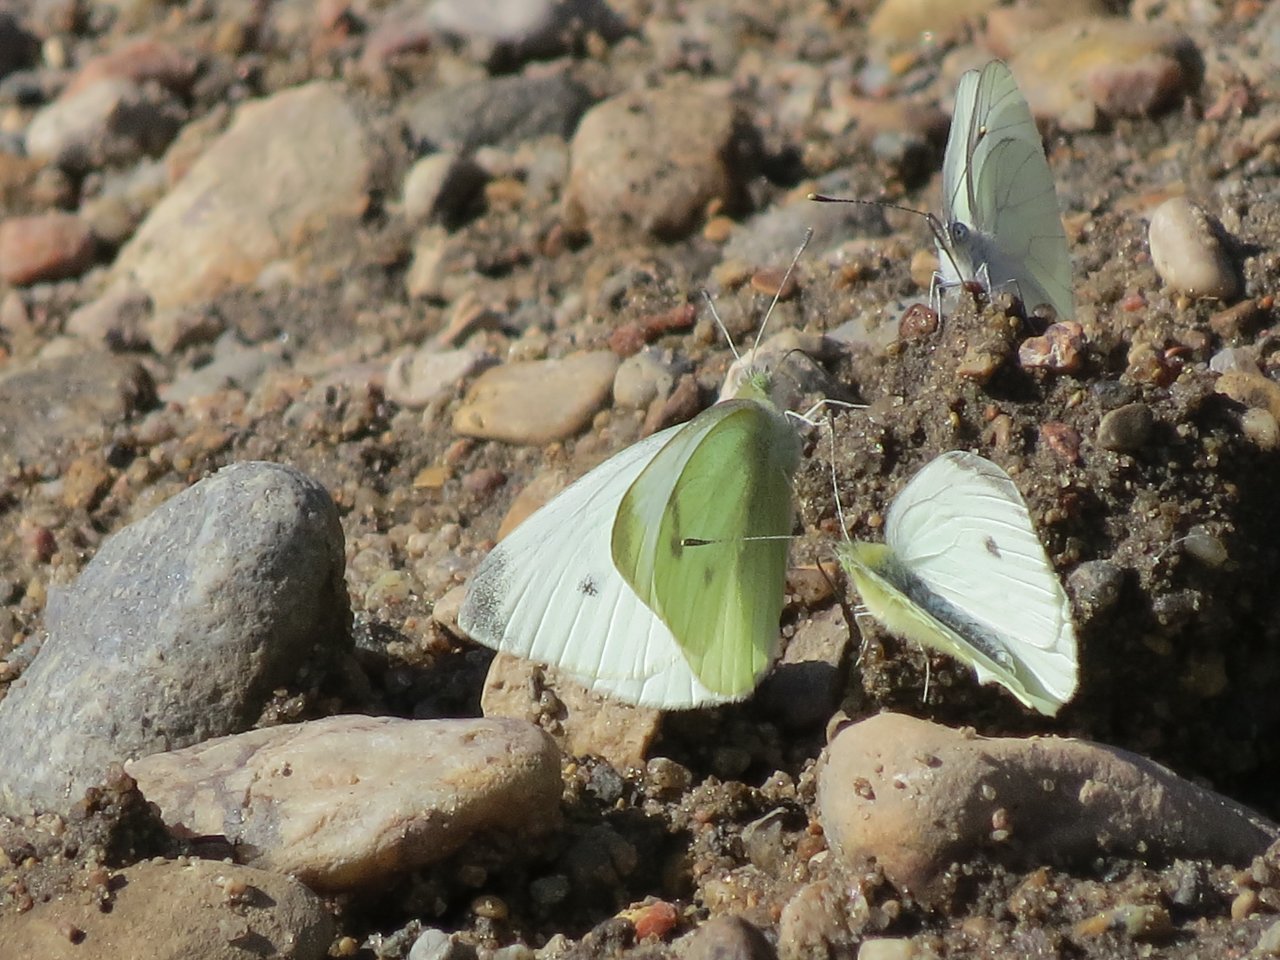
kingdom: Animalia
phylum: Arthropoda
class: Insecta
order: Lepidoptera
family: Pieridae
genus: Pieris
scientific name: Pieris rapae
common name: Cabbage White
